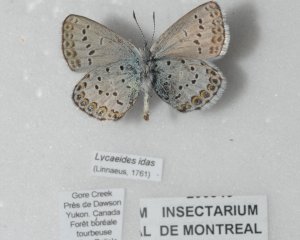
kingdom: Animalia
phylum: Arthropoda
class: Insecta
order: Lepidoptera
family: Lycaenidae
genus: Lycaeides
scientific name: Lycaeides idas
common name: Northern Blue
